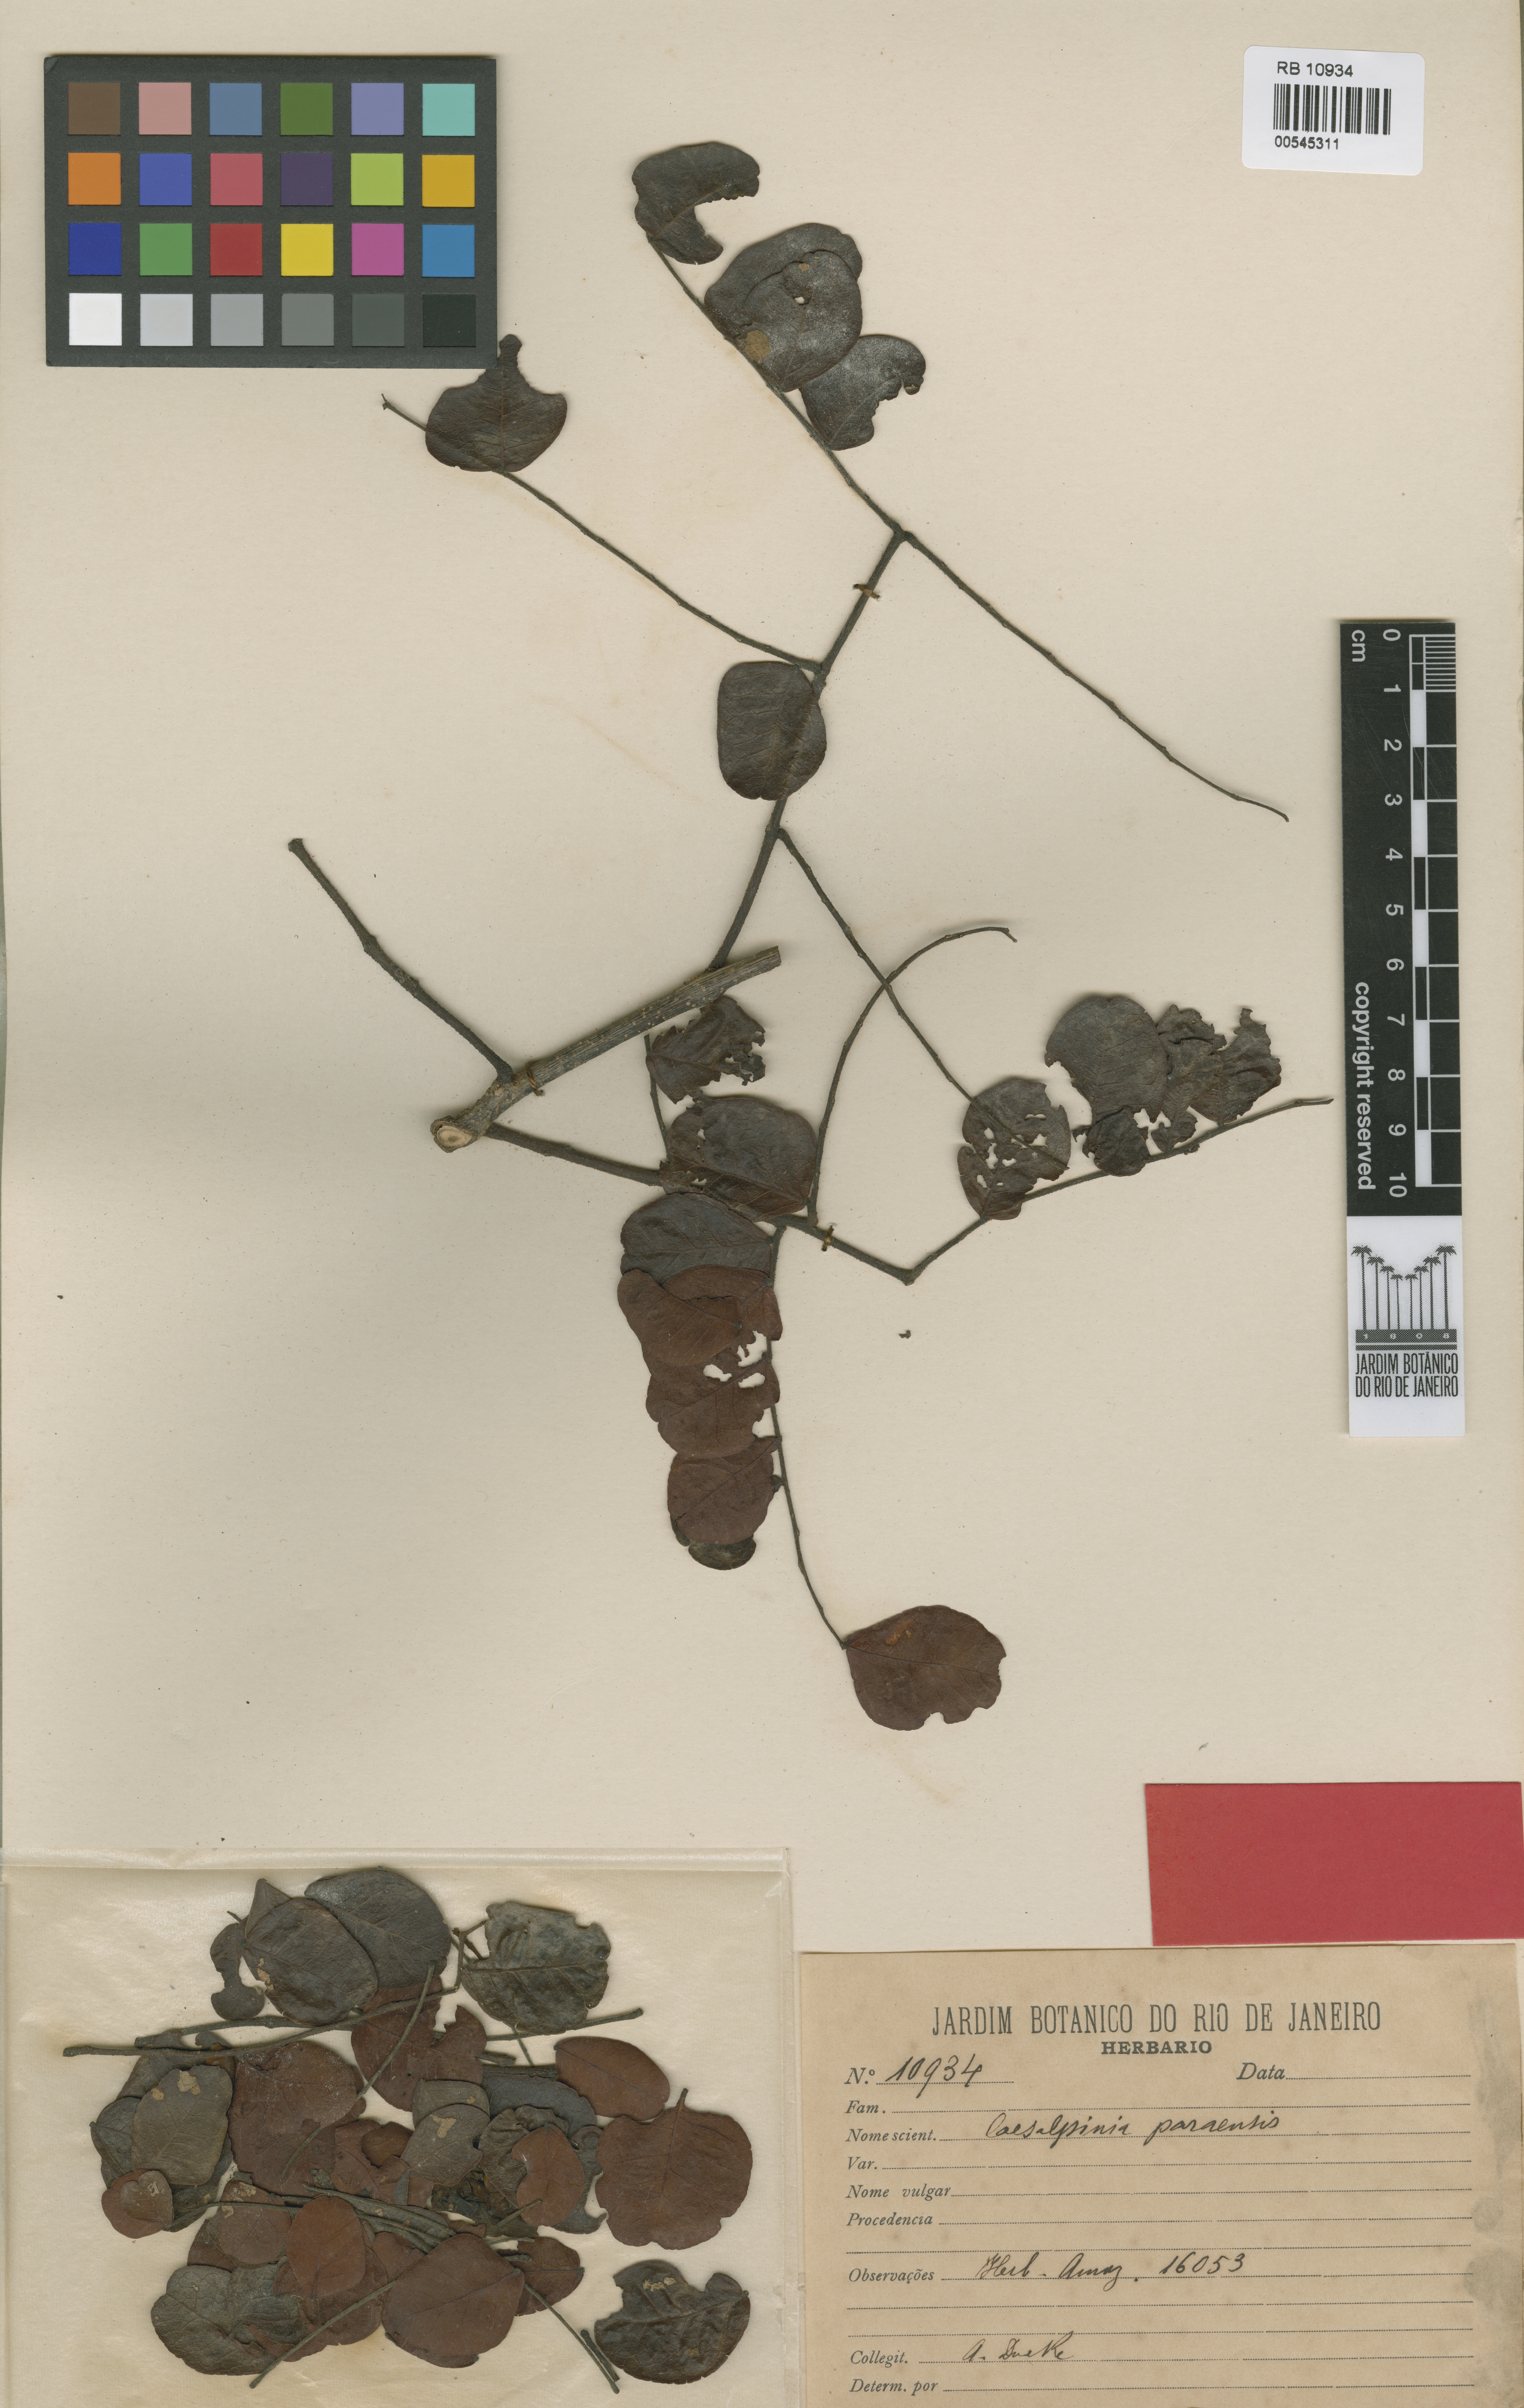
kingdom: Plantae
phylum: Tracheophyta
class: Magnoliopsida
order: Fabales
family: Fabaceae
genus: Cenostigma
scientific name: Cenostigma pluviosum
